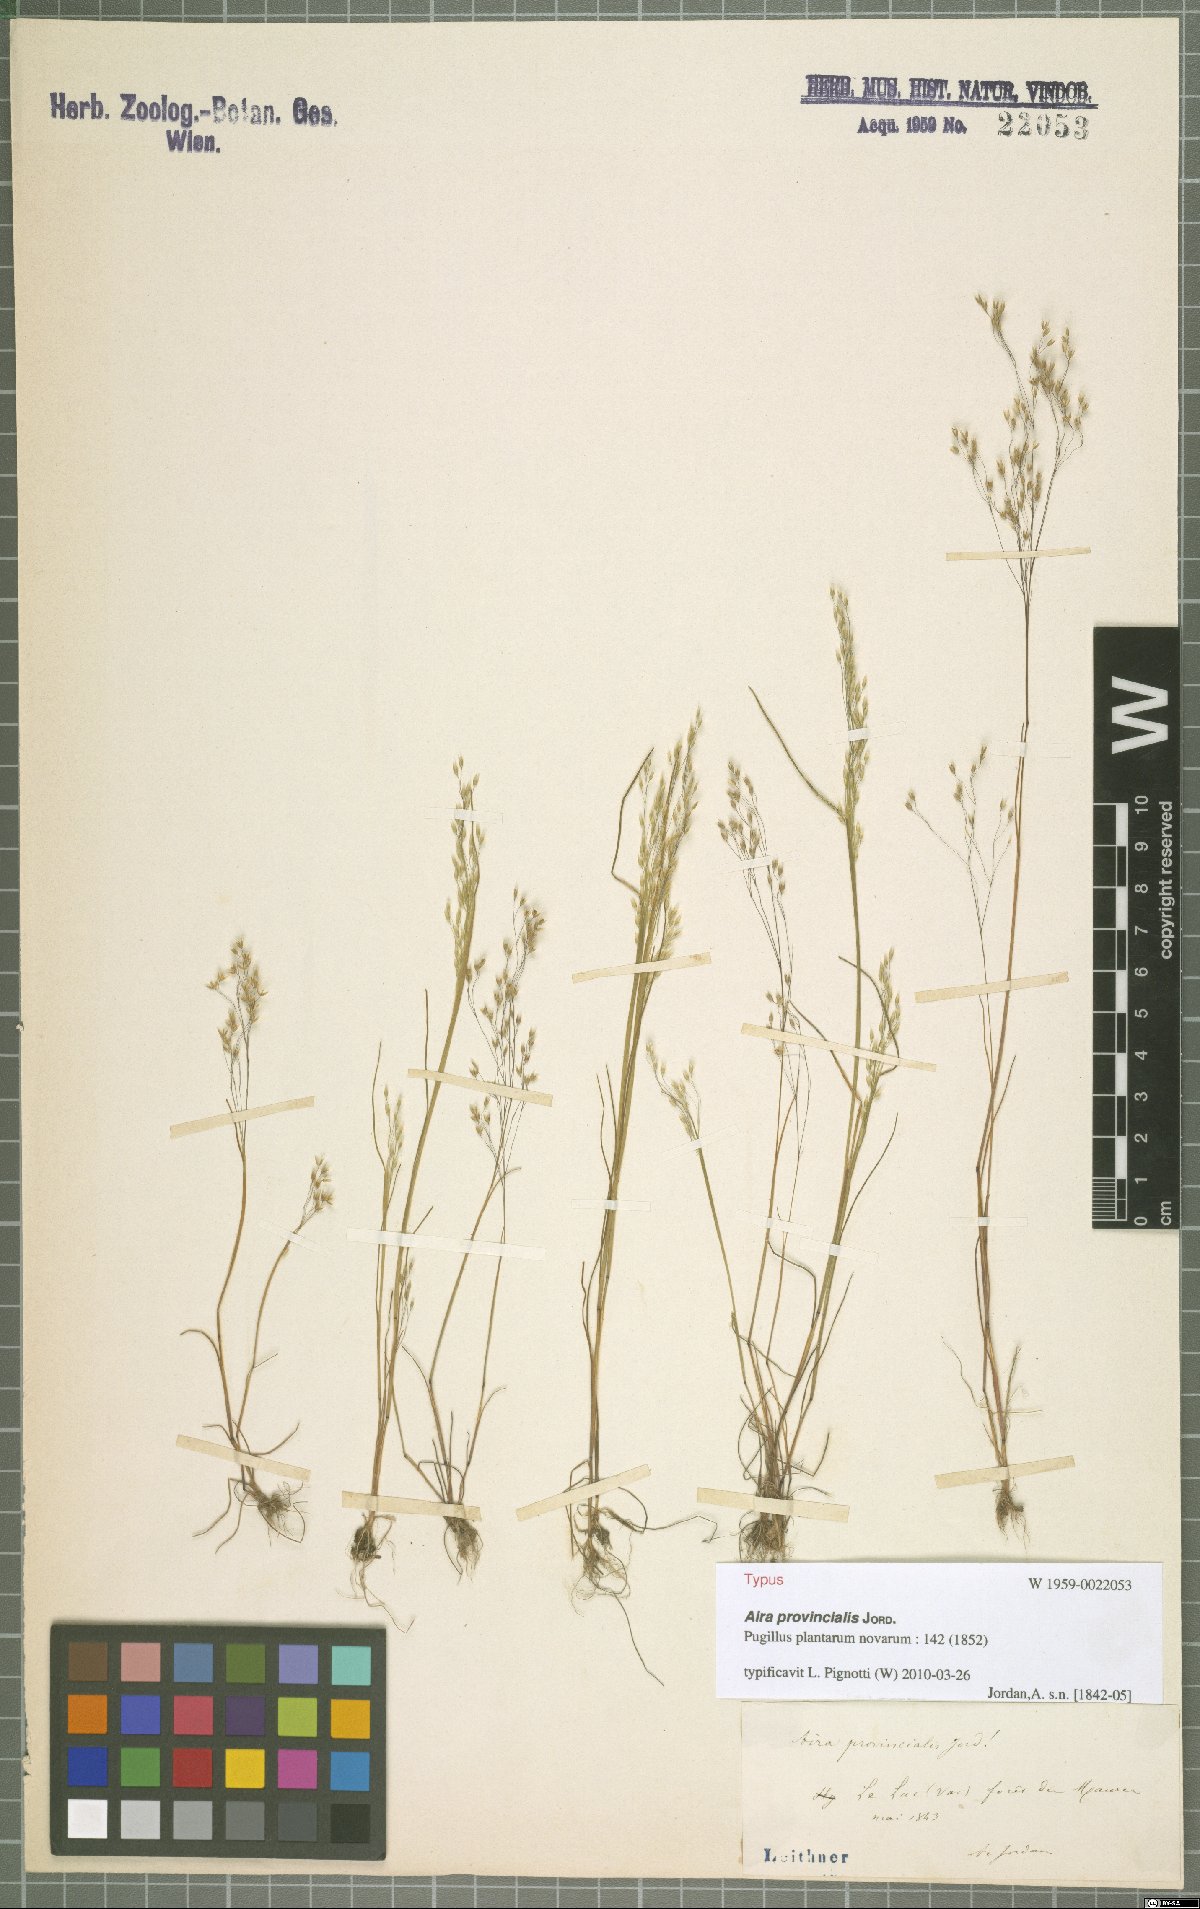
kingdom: Plantae
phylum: Tracheophyta
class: Liliopsida
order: Poales
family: Poaceae
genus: Aira
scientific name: Aira provincialis
